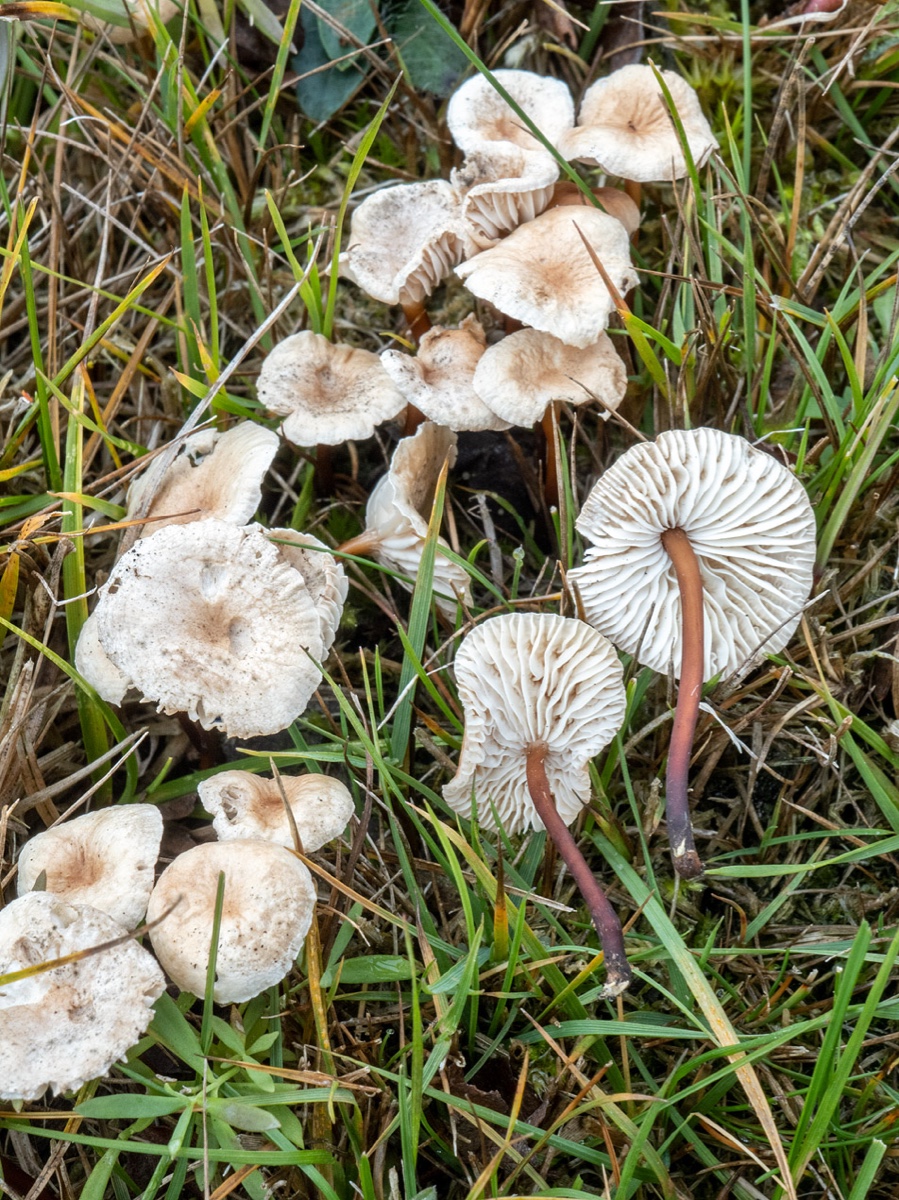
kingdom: Fungi
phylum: Basidiomycota
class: Agaricomycetes
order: Agaricales
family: Omphalotaceae
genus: Mycetinis
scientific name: Mycetinis scorodonius
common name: lille løghat
